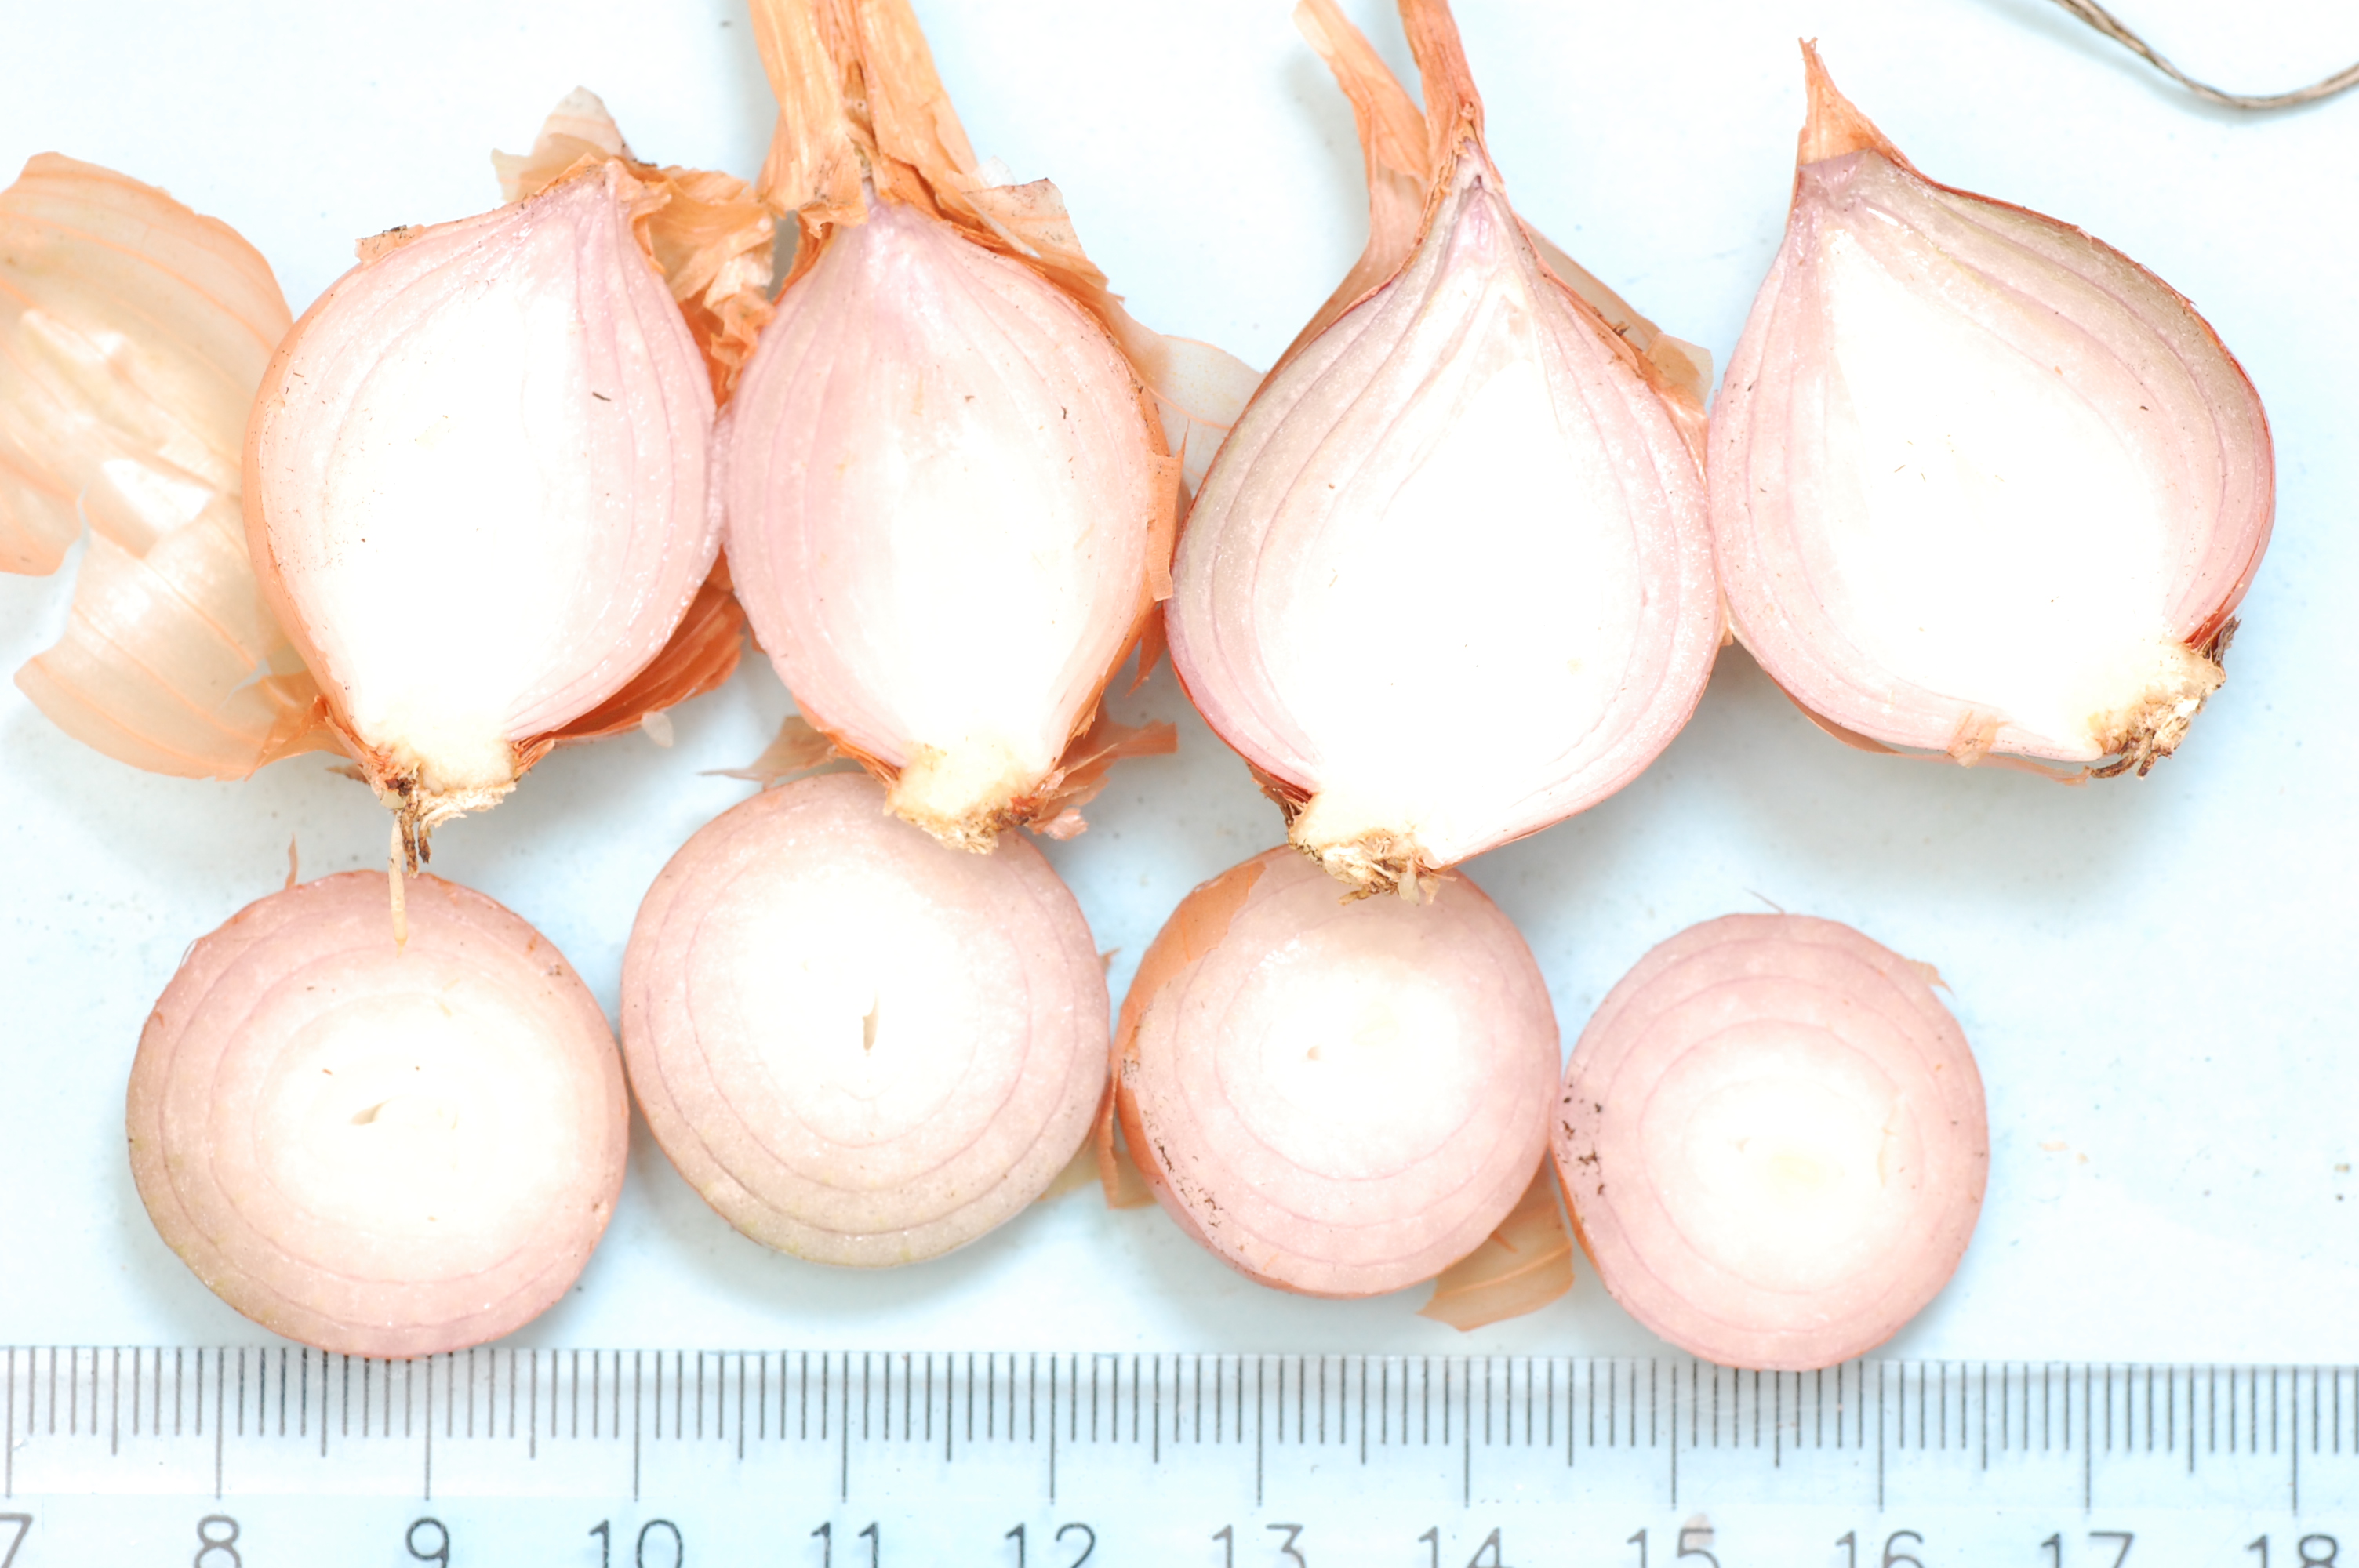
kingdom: Plantae
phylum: Tracheophyta
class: Liliopsida
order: Asparagales
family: Amaryllidaceae
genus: Allium
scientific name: Allium cepa
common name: Onion
